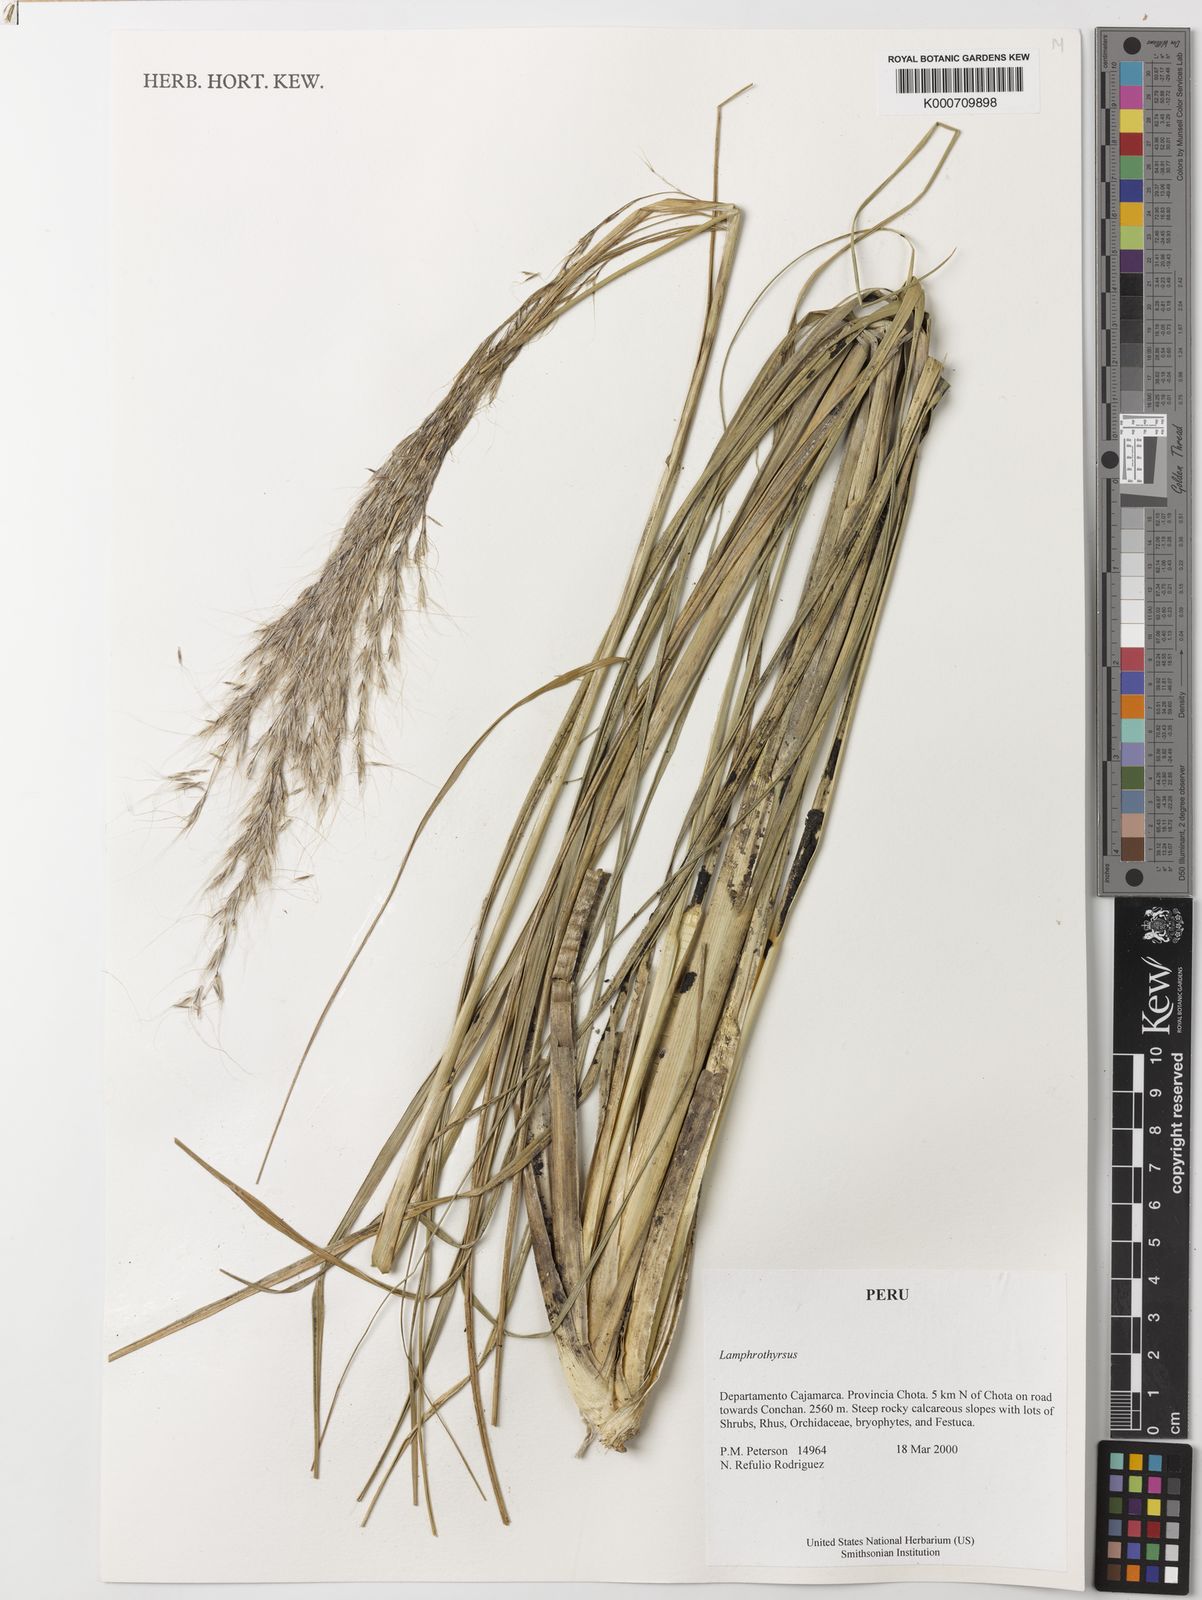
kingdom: Plantae
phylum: Tracheophyta
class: Liliopsida
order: Poales
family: Poaceae
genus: Cortaderia
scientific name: Cortaderia hieronymi
